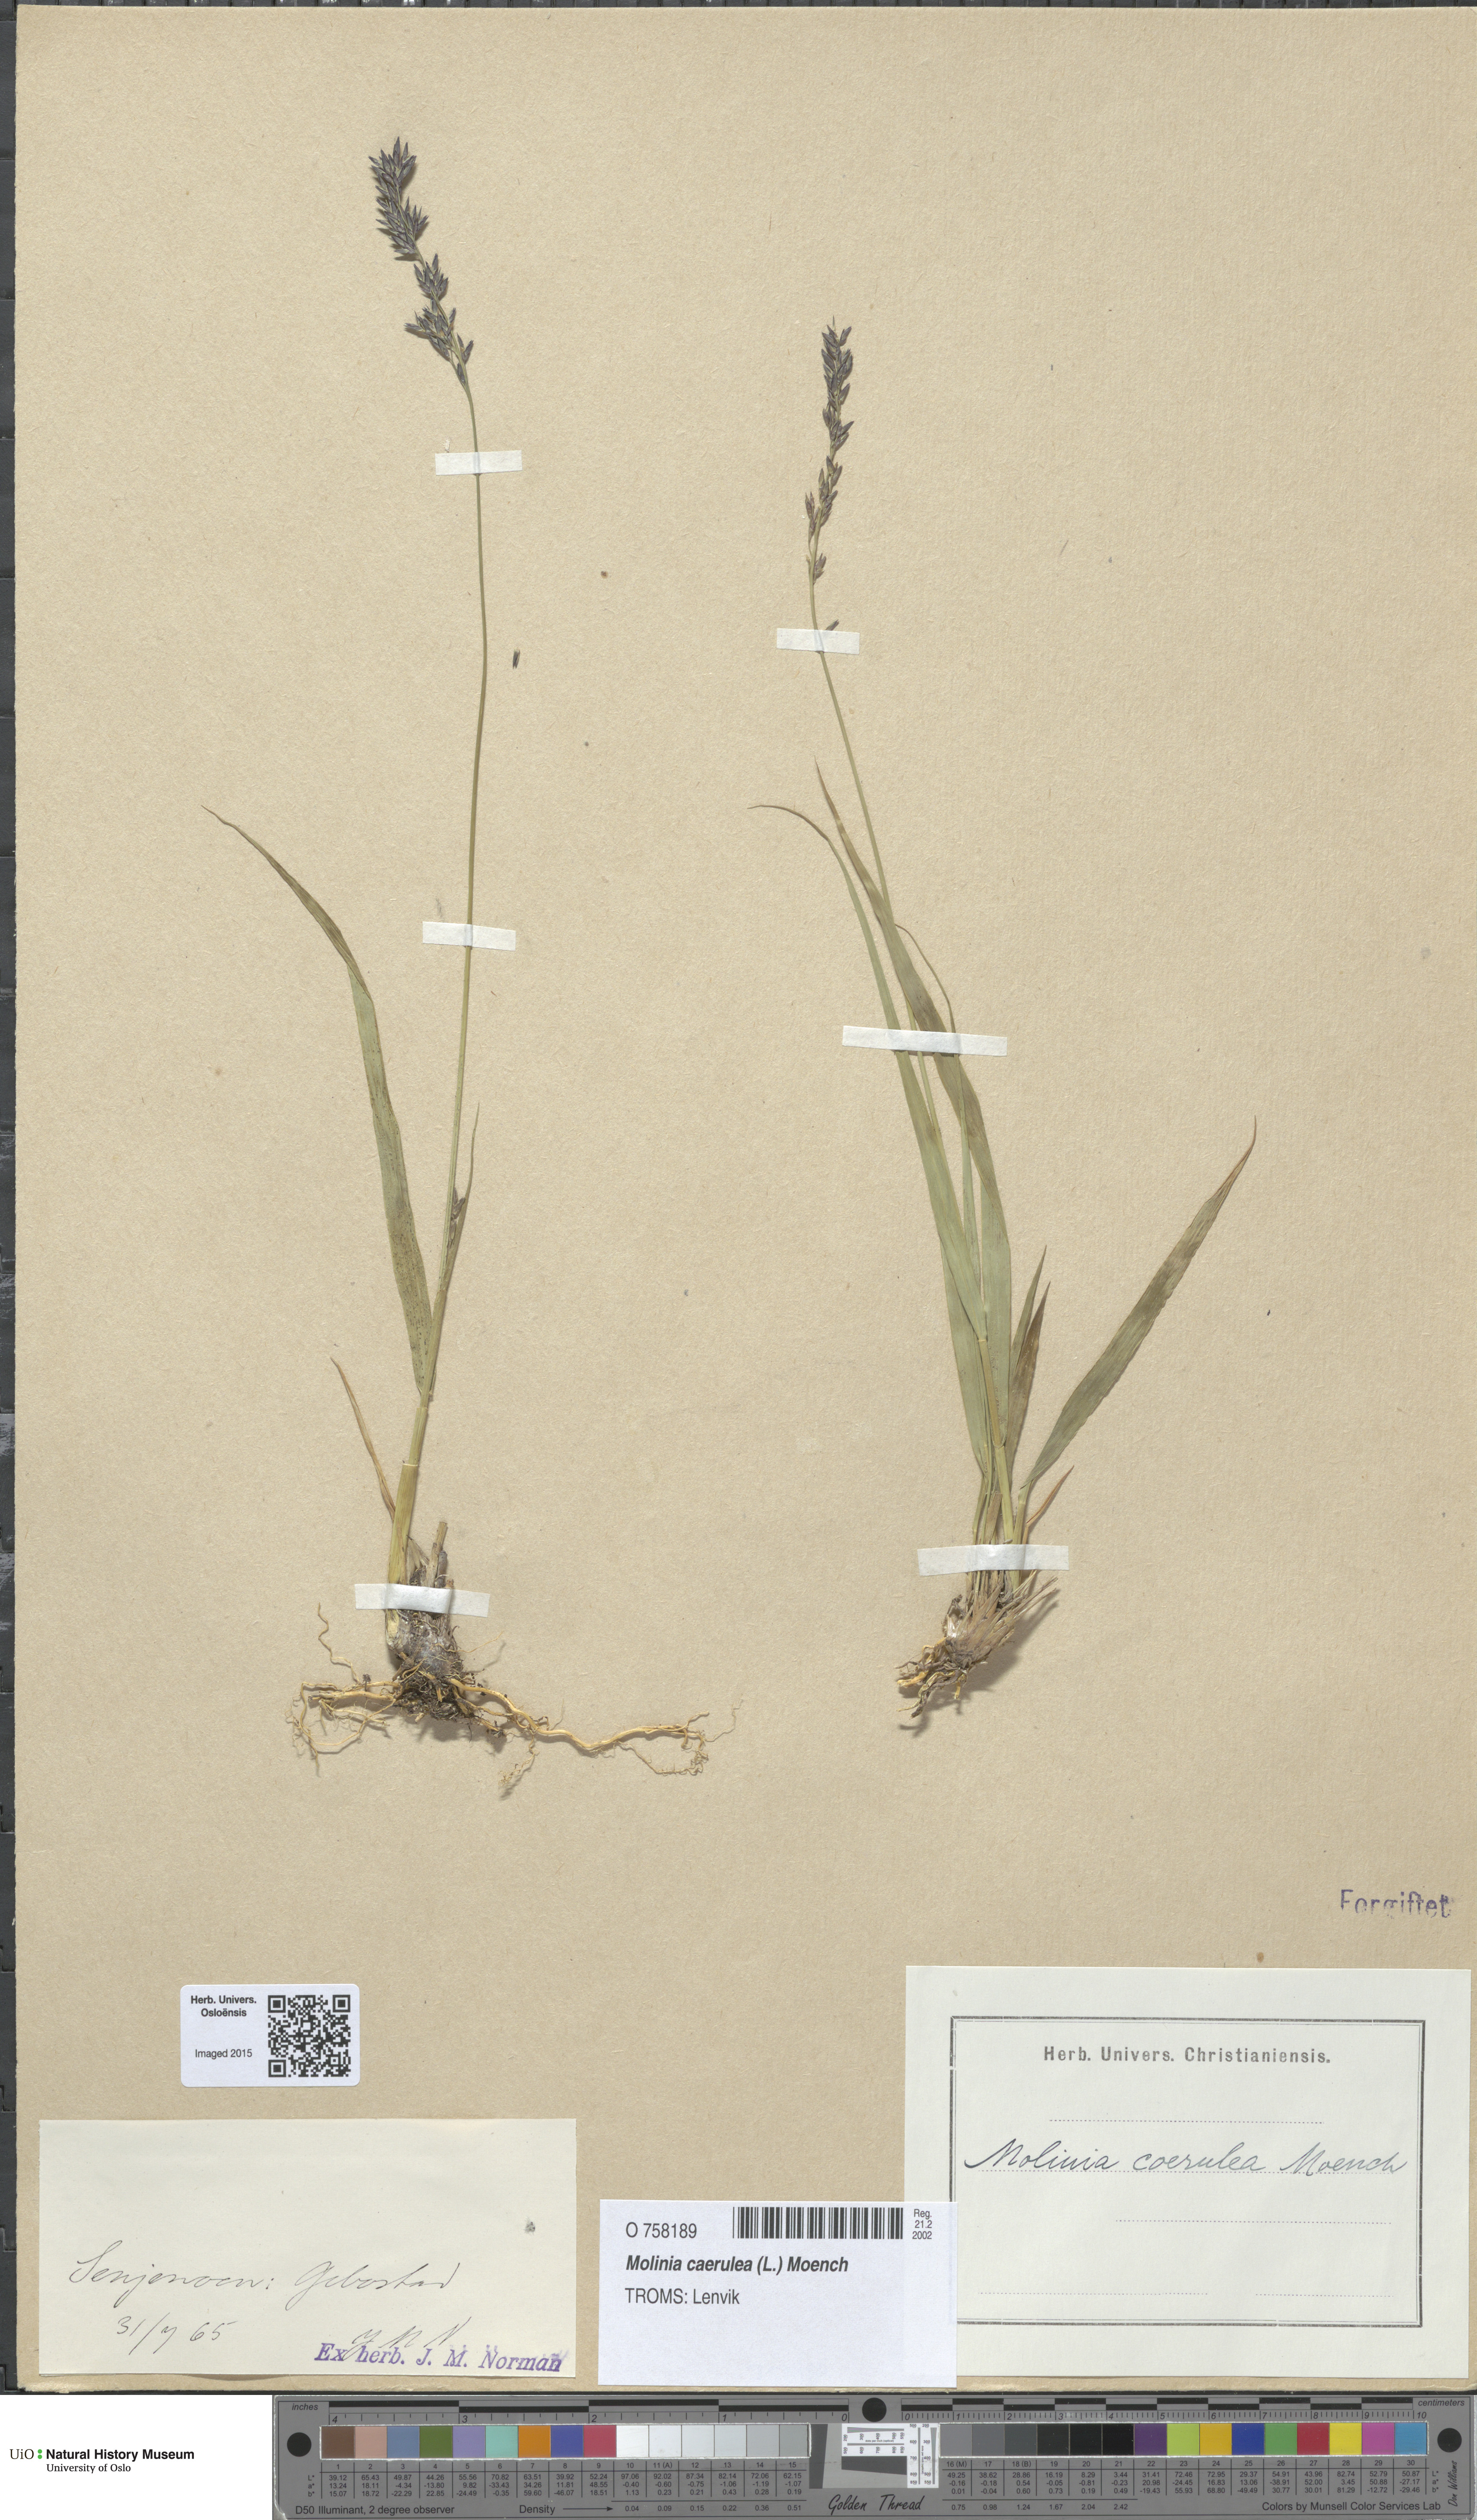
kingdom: Plantae
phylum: Tracheophyta
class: Liliopsida
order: Poales
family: Poaceae
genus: Molinia
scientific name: Molinia caerulea
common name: Purple moor-grass
